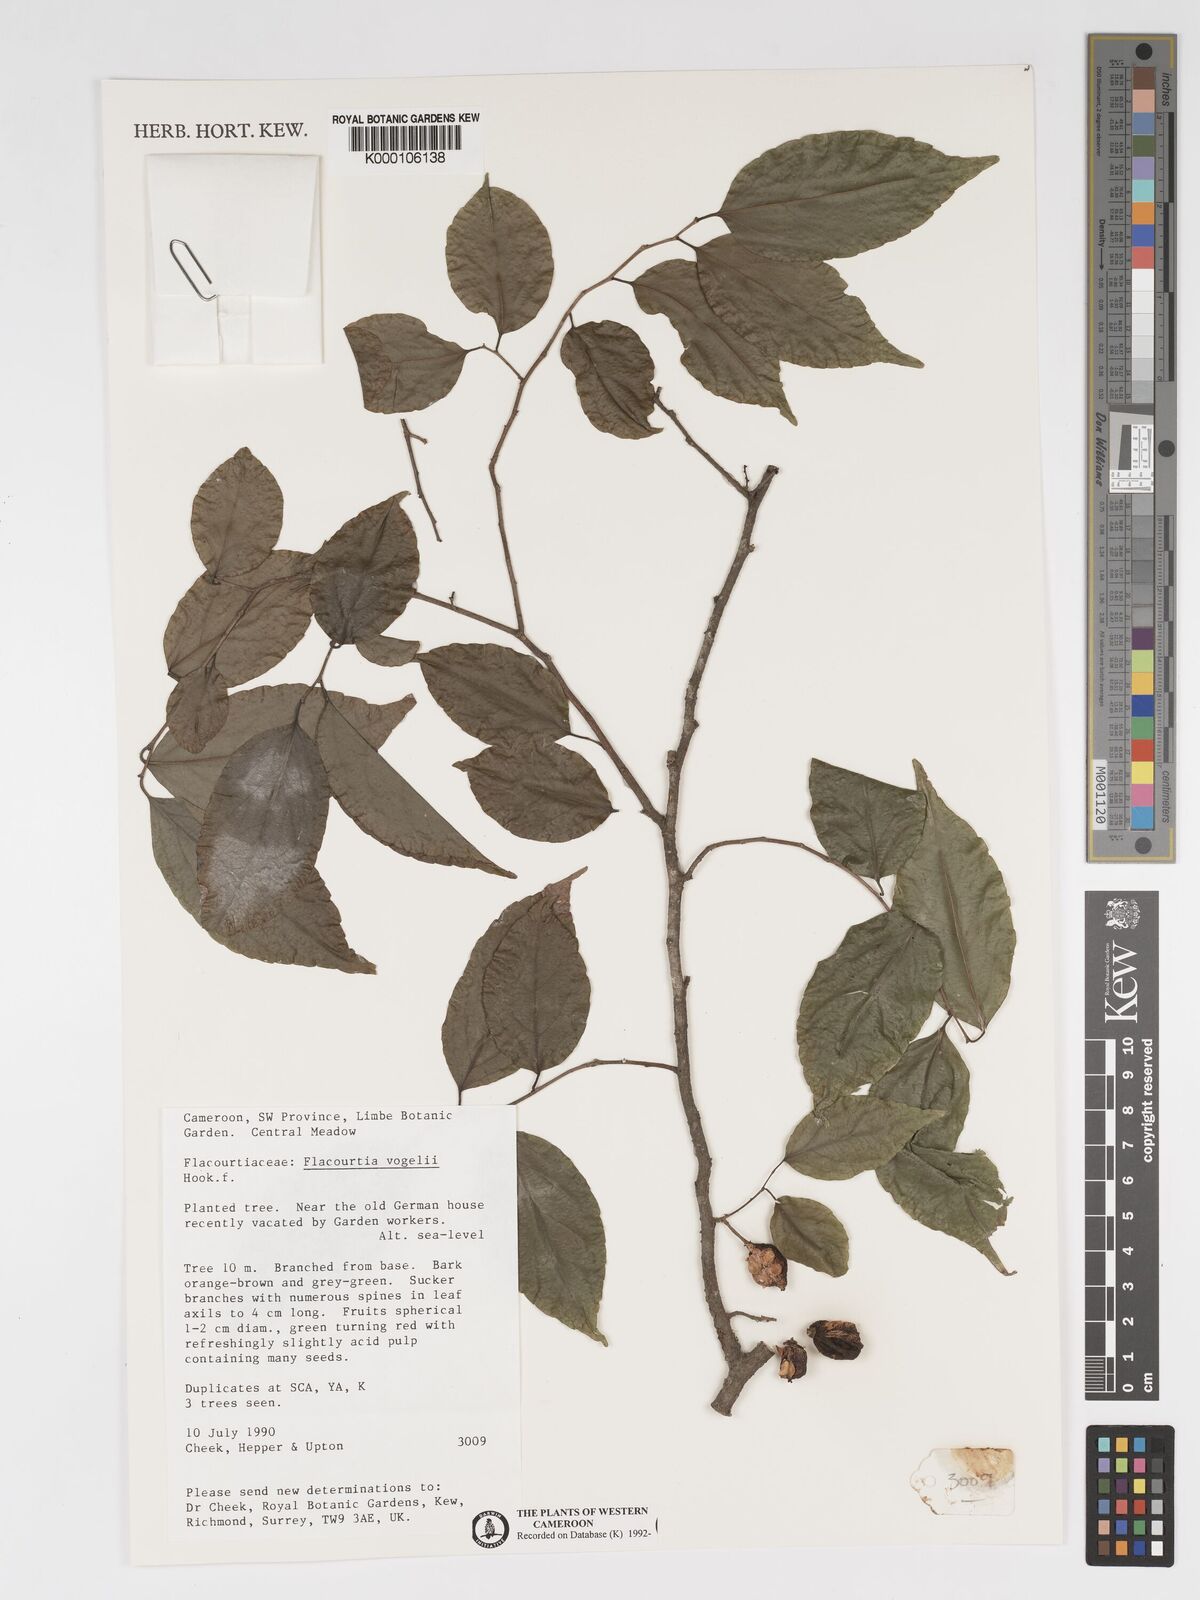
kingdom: Plantae
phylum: Tracheophyta
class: Magnoliopsida
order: Malpighiales
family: Salicaceae
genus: Flacourtia
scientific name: Flacourtia vogelii
